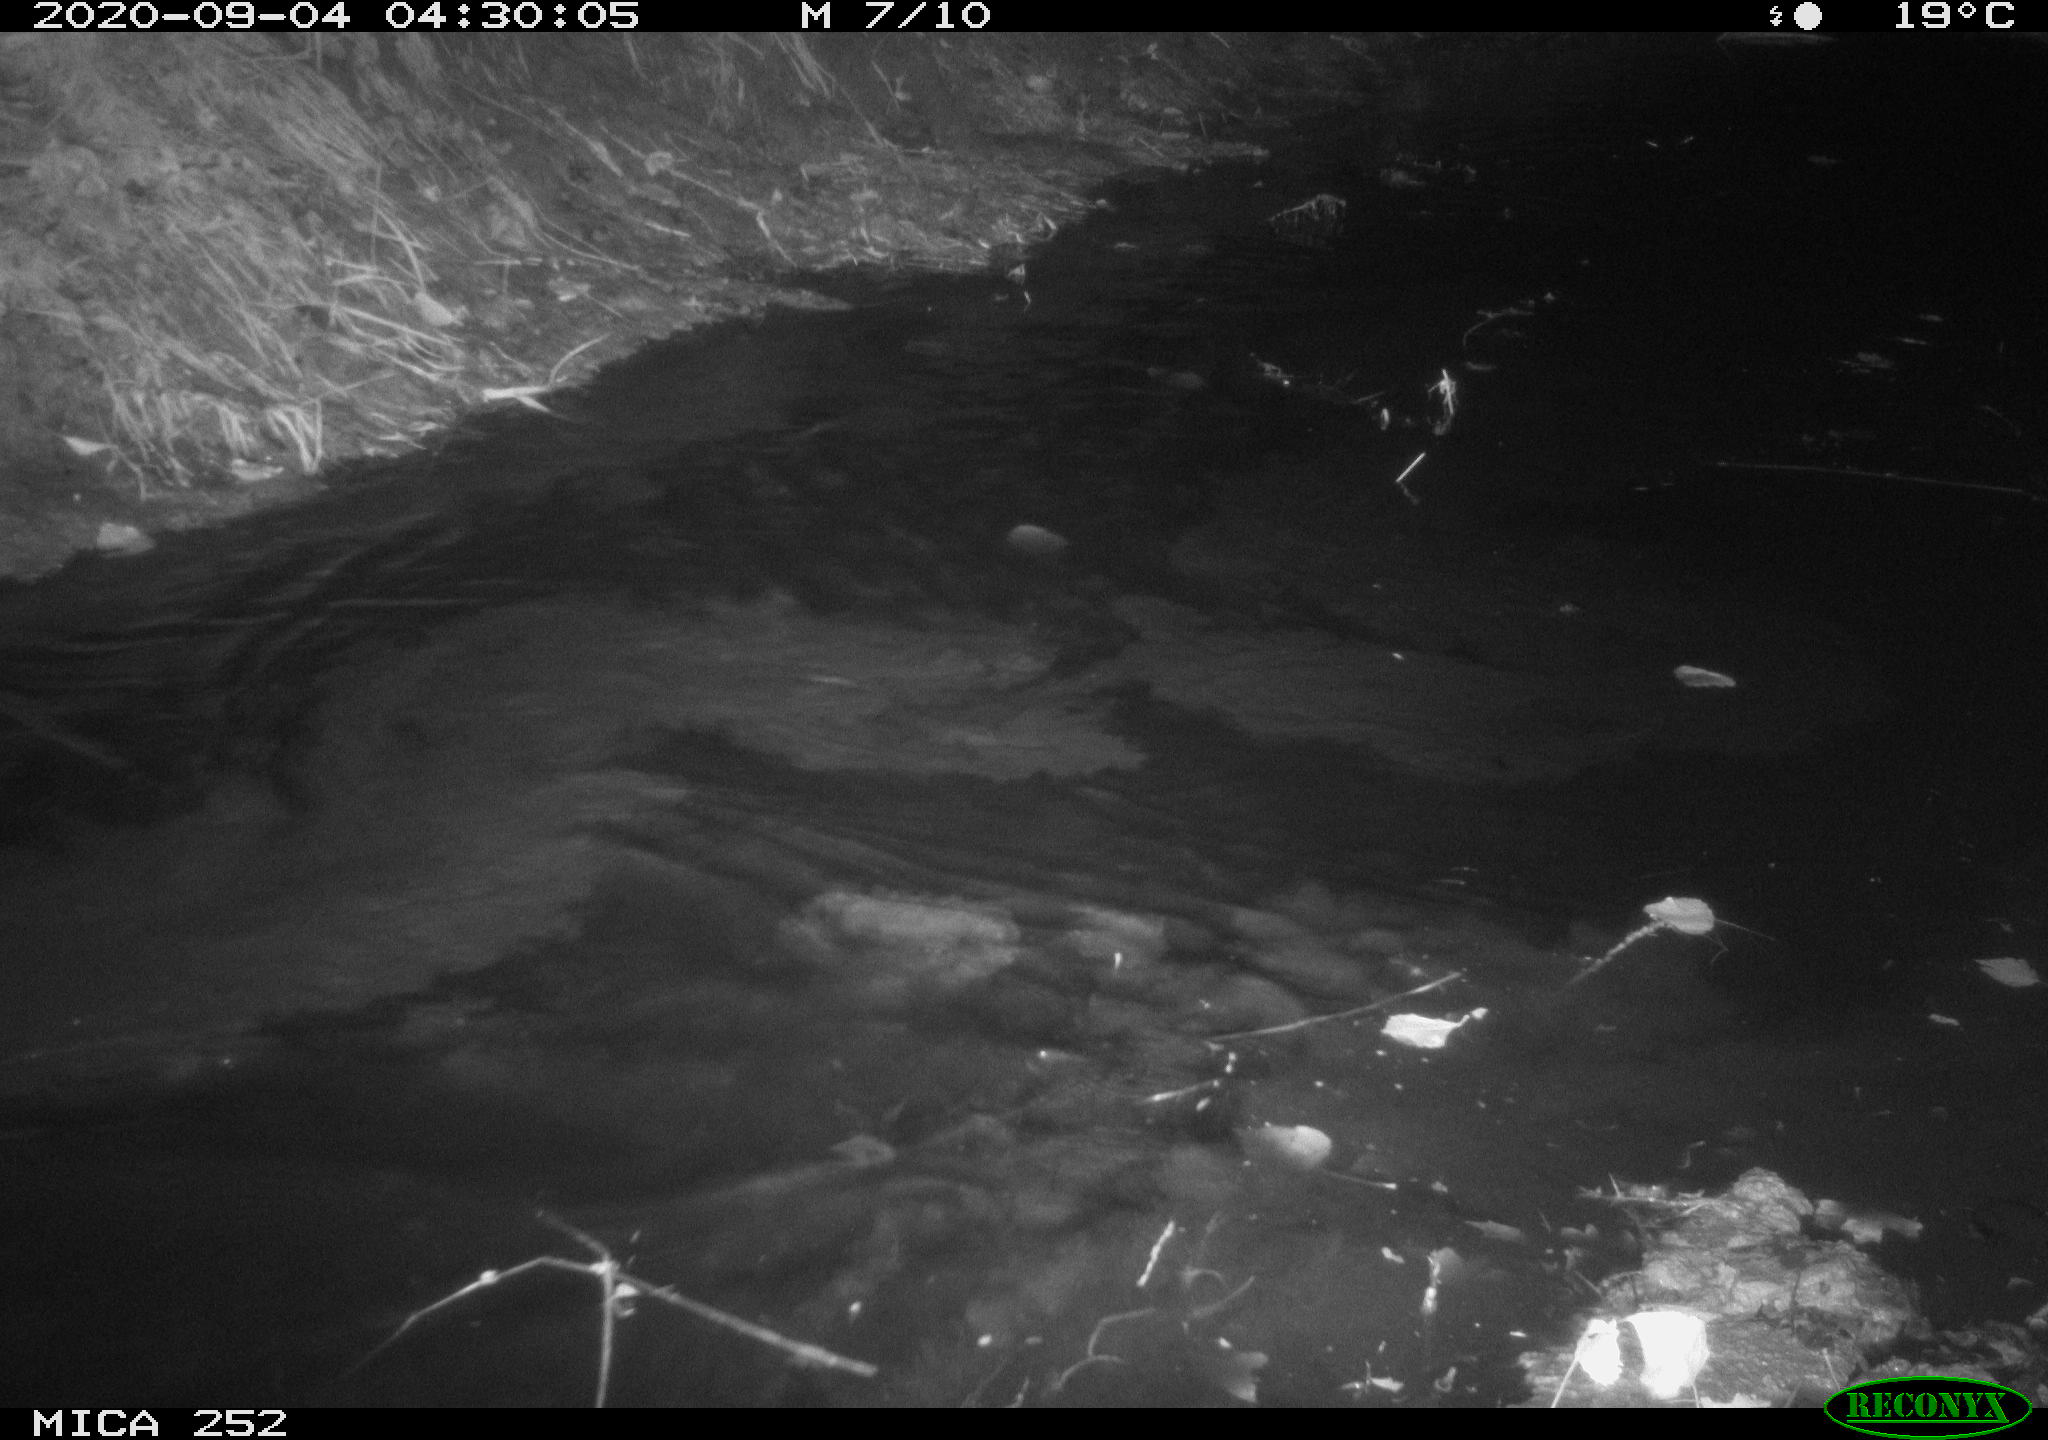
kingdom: Animalia
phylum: Chordata
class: Mammalia
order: Rodentia
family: Castoridae
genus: Castor
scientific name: Castor fiber
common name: Eurasian beaver
